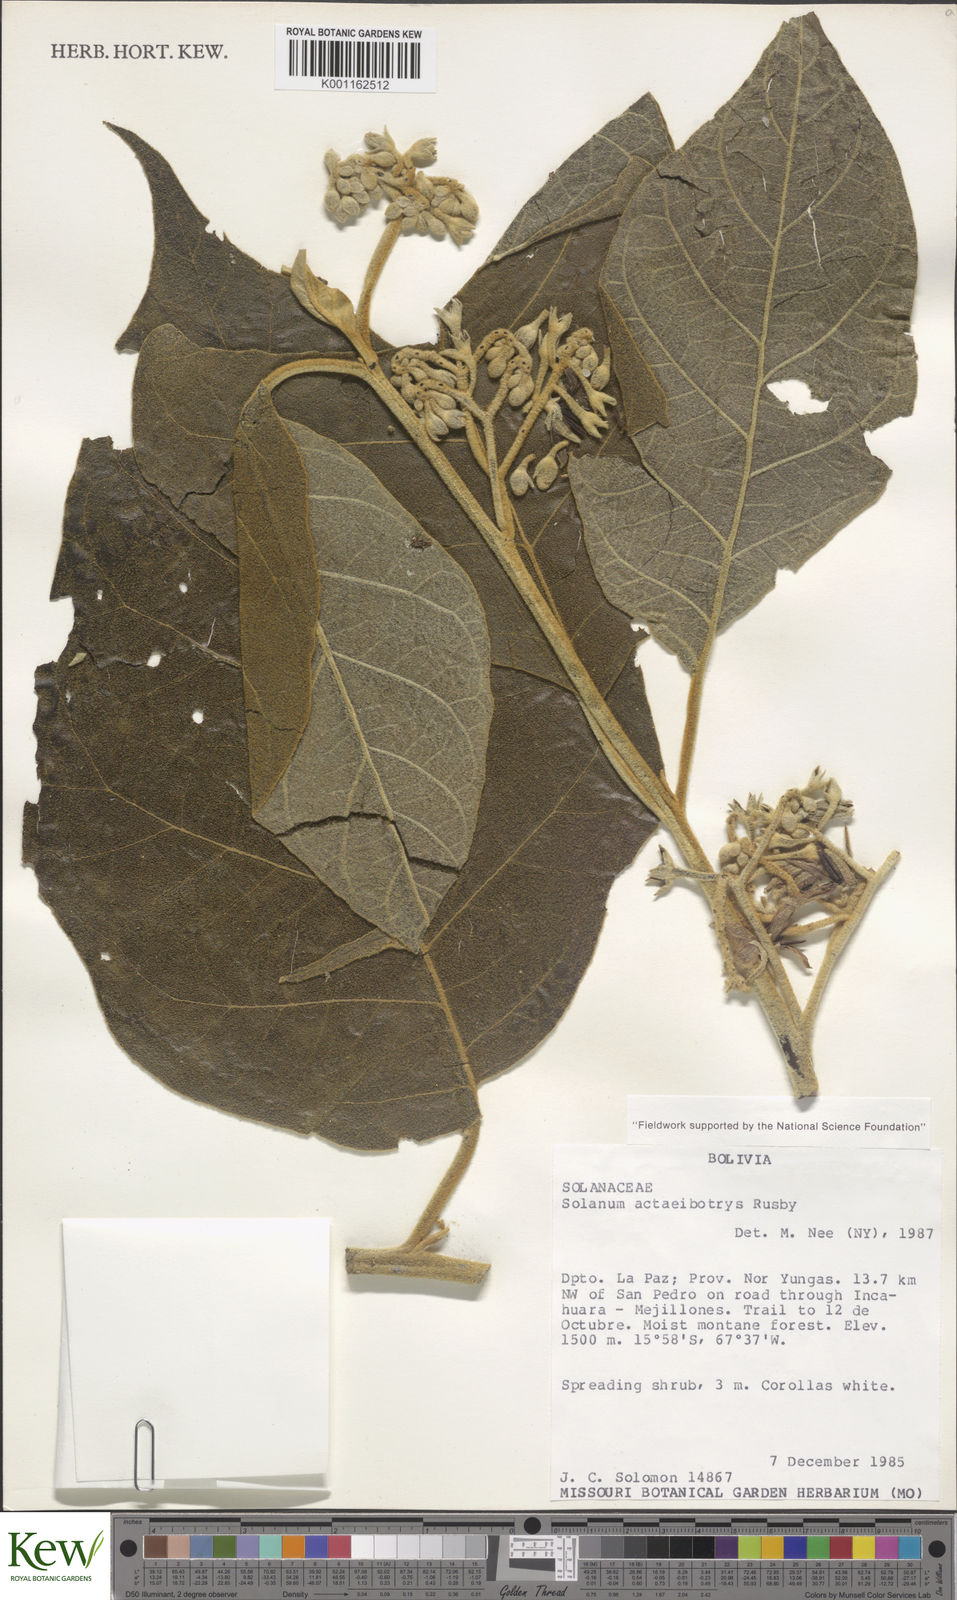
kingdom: Plantae
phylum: Tracheophyta
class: Magnoliopsida
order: Solanales
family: Solanaceae
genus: Solanum
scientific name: Solanum
